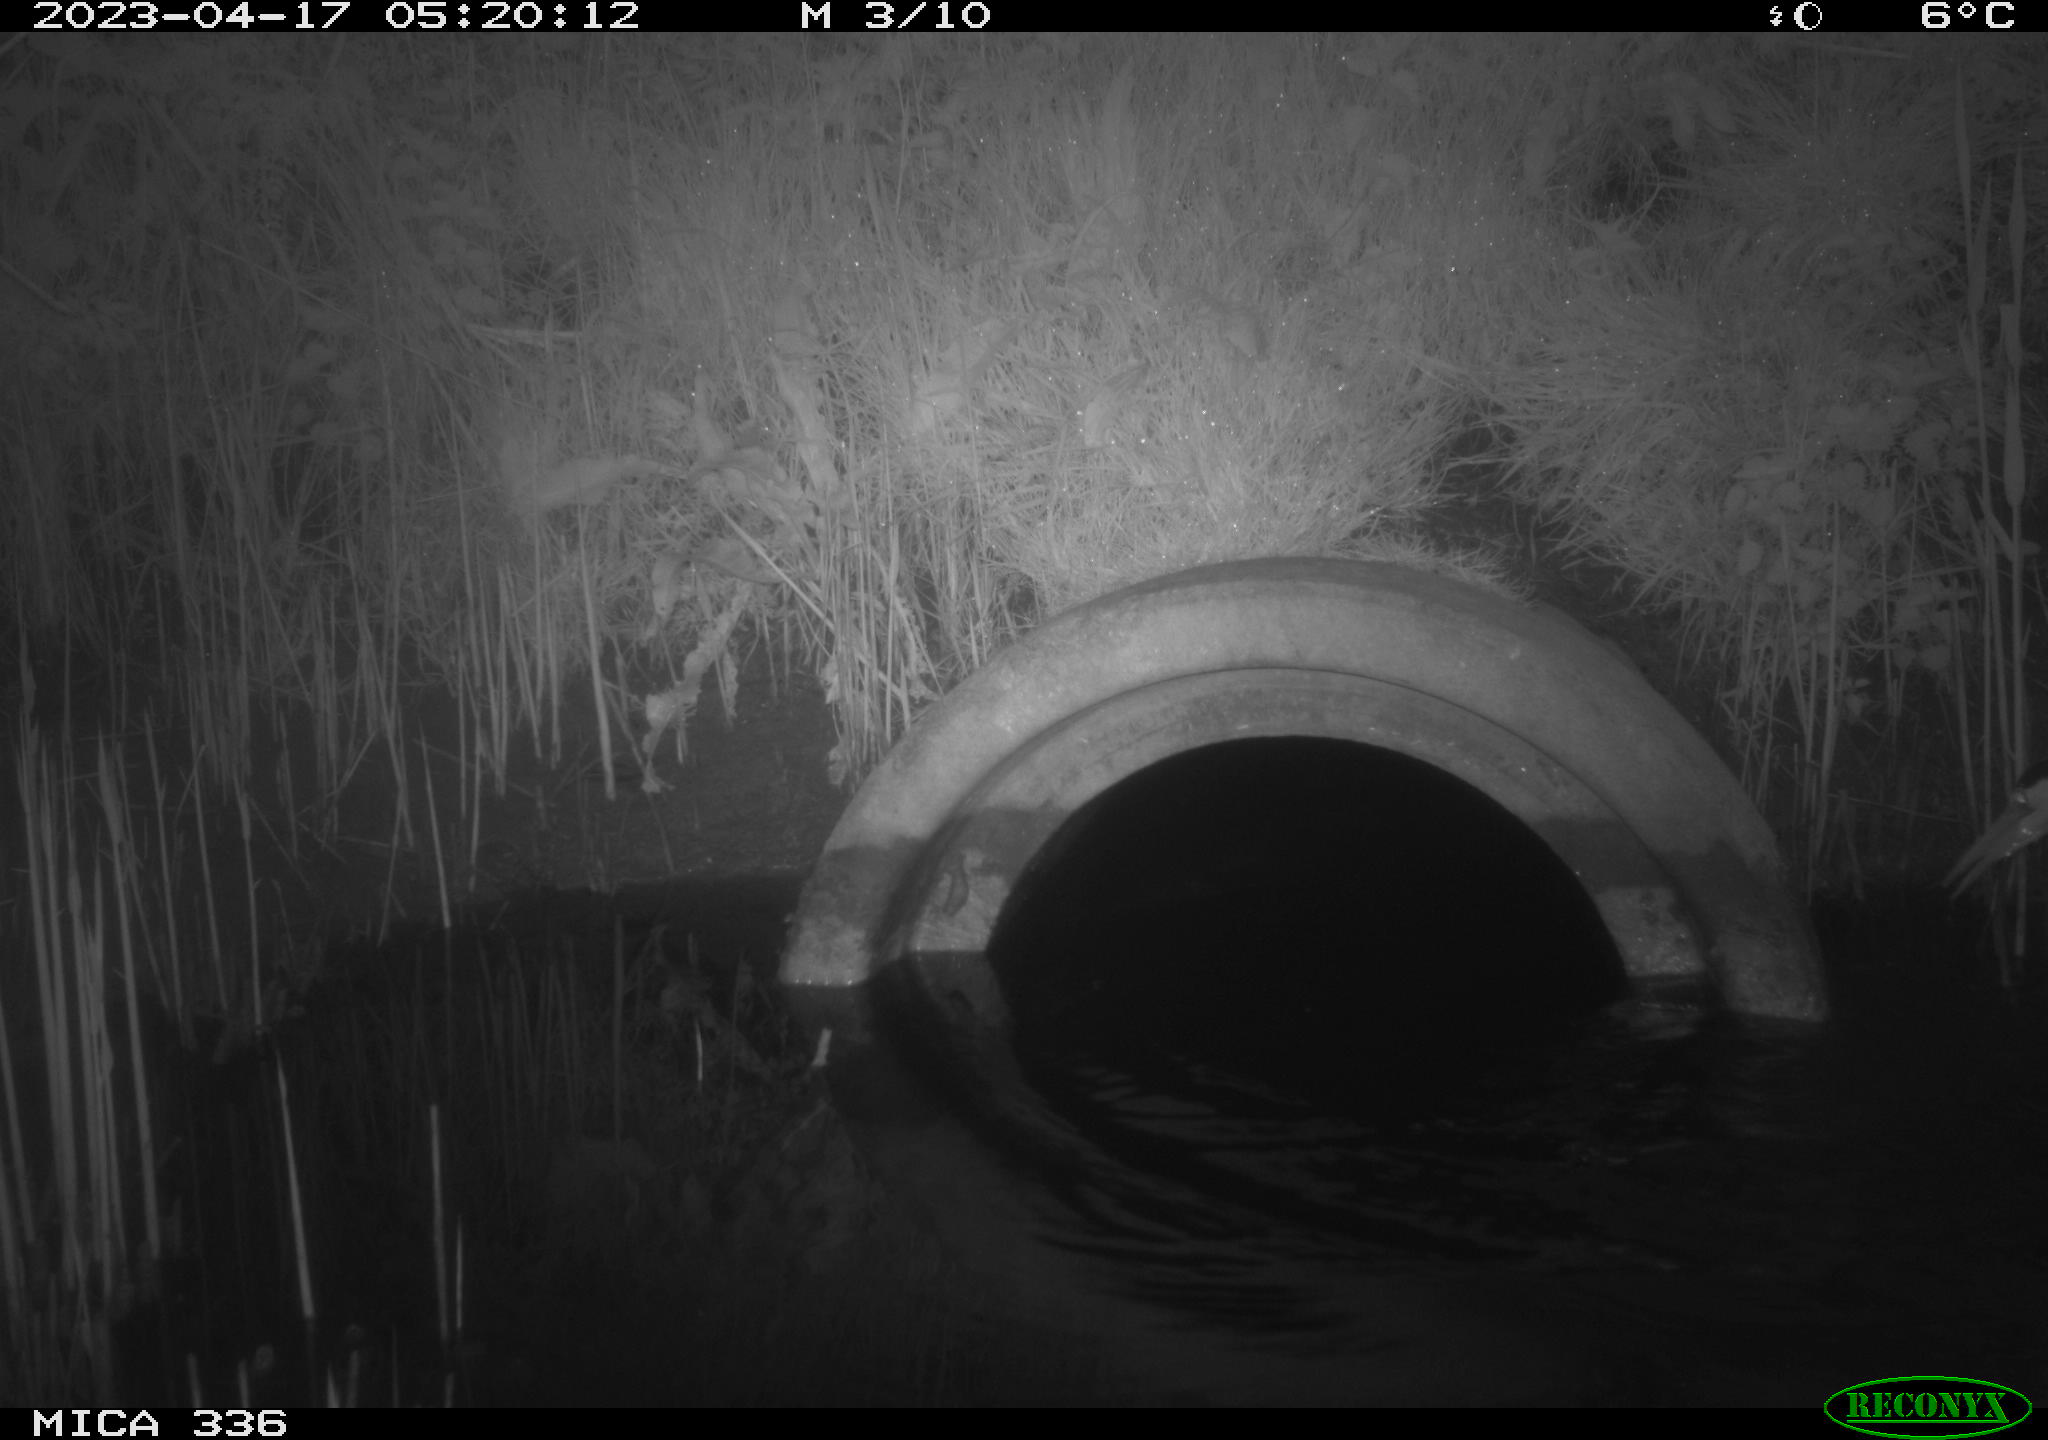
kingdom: Animalia
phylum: Chordata
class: Aves
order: Pelecaniformes
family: Ardeidae
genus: Ardea
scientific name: Ardea cinerea
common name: Grey heron
